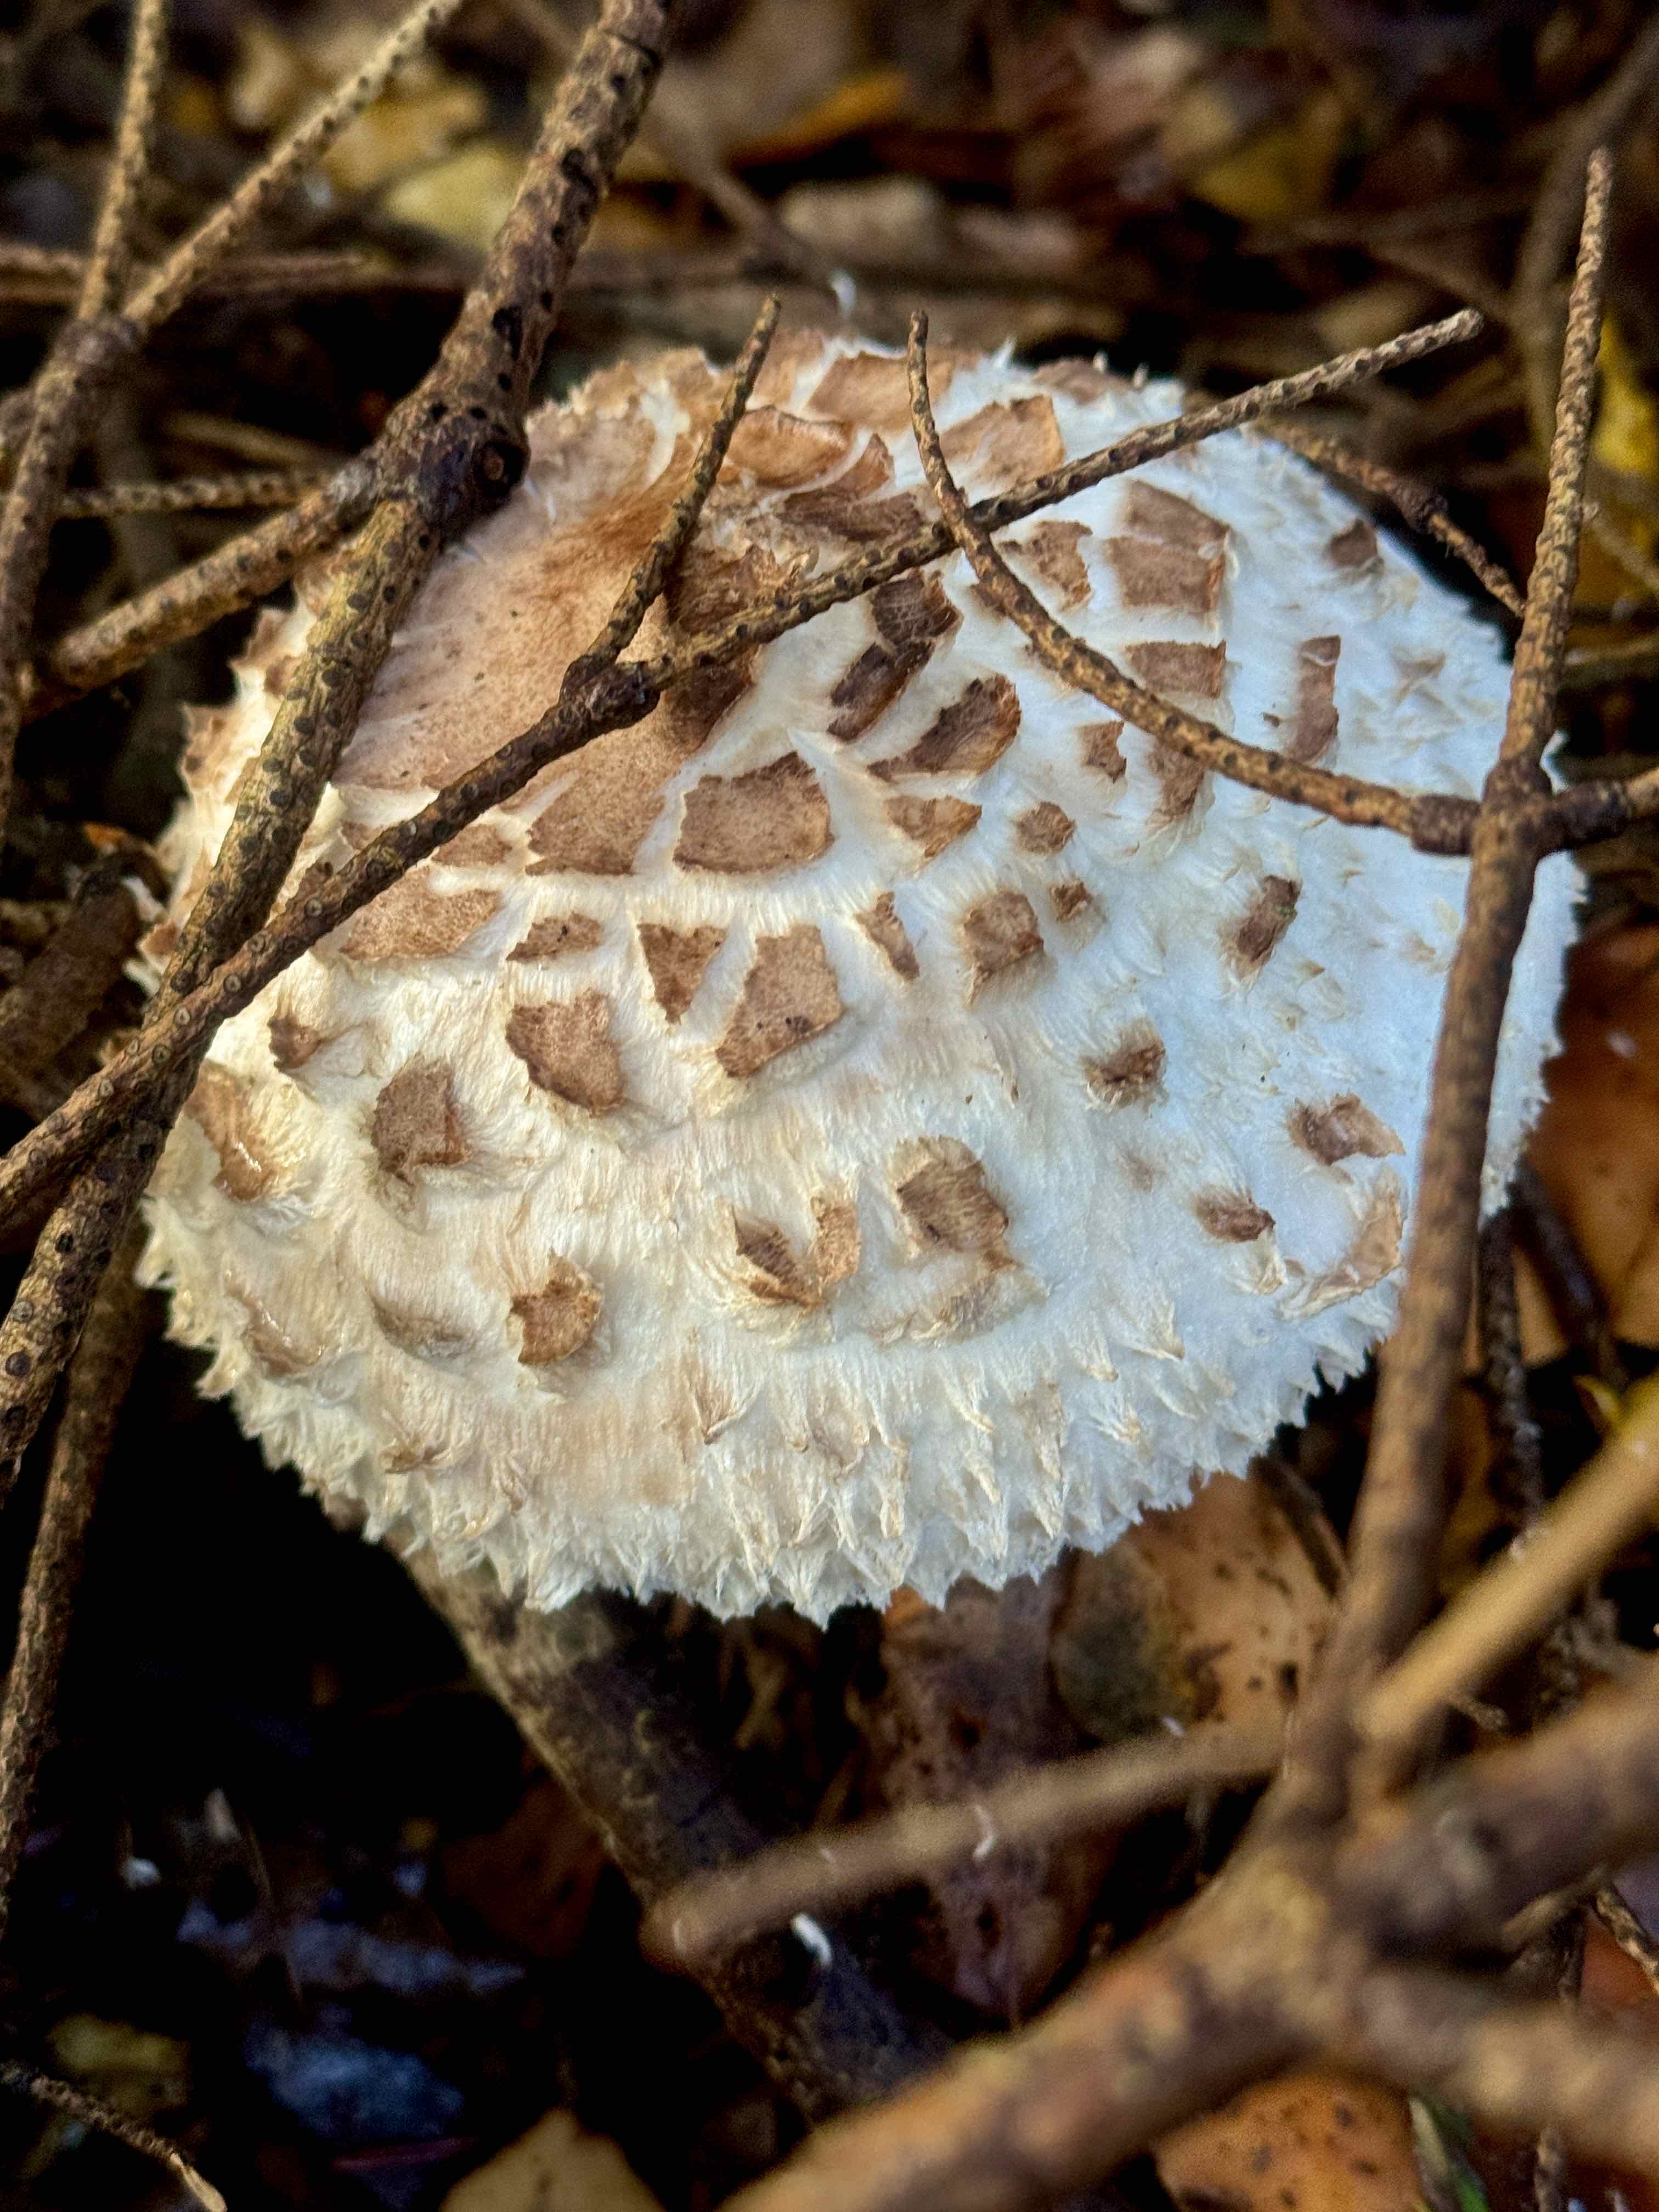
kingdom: Fungi
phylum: Basidiomycota
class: Agaricomycetes
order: Agaricales
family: Agaricaceae
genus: Chlorophyllum
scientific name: Chlorophyllum olivieri
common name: almindelig rabarberhat
